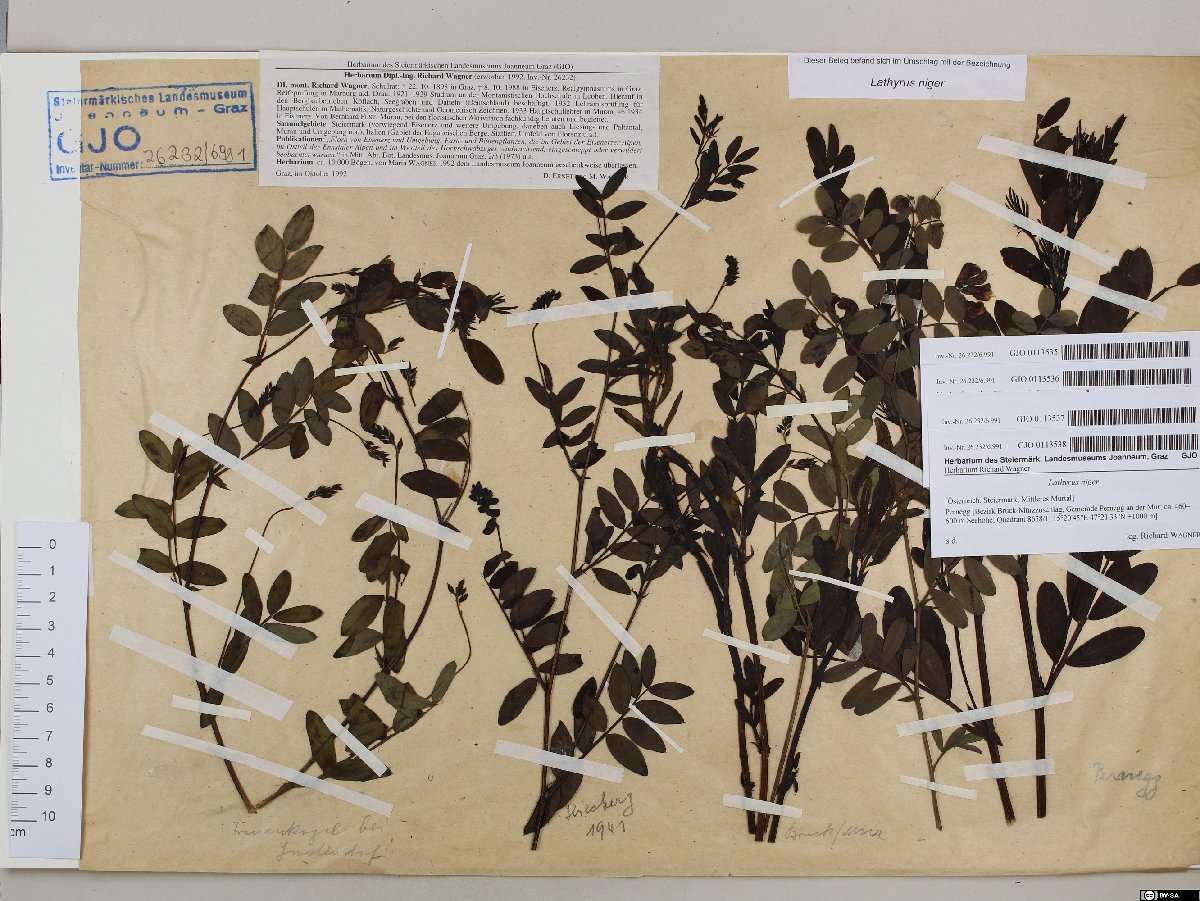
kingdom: Plantae
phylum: Tracheophyta
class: Magnoliopsida
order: Fabales
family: Fabaceae
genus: Lathyrus
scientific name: Lathyrus niger
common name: Black pea
